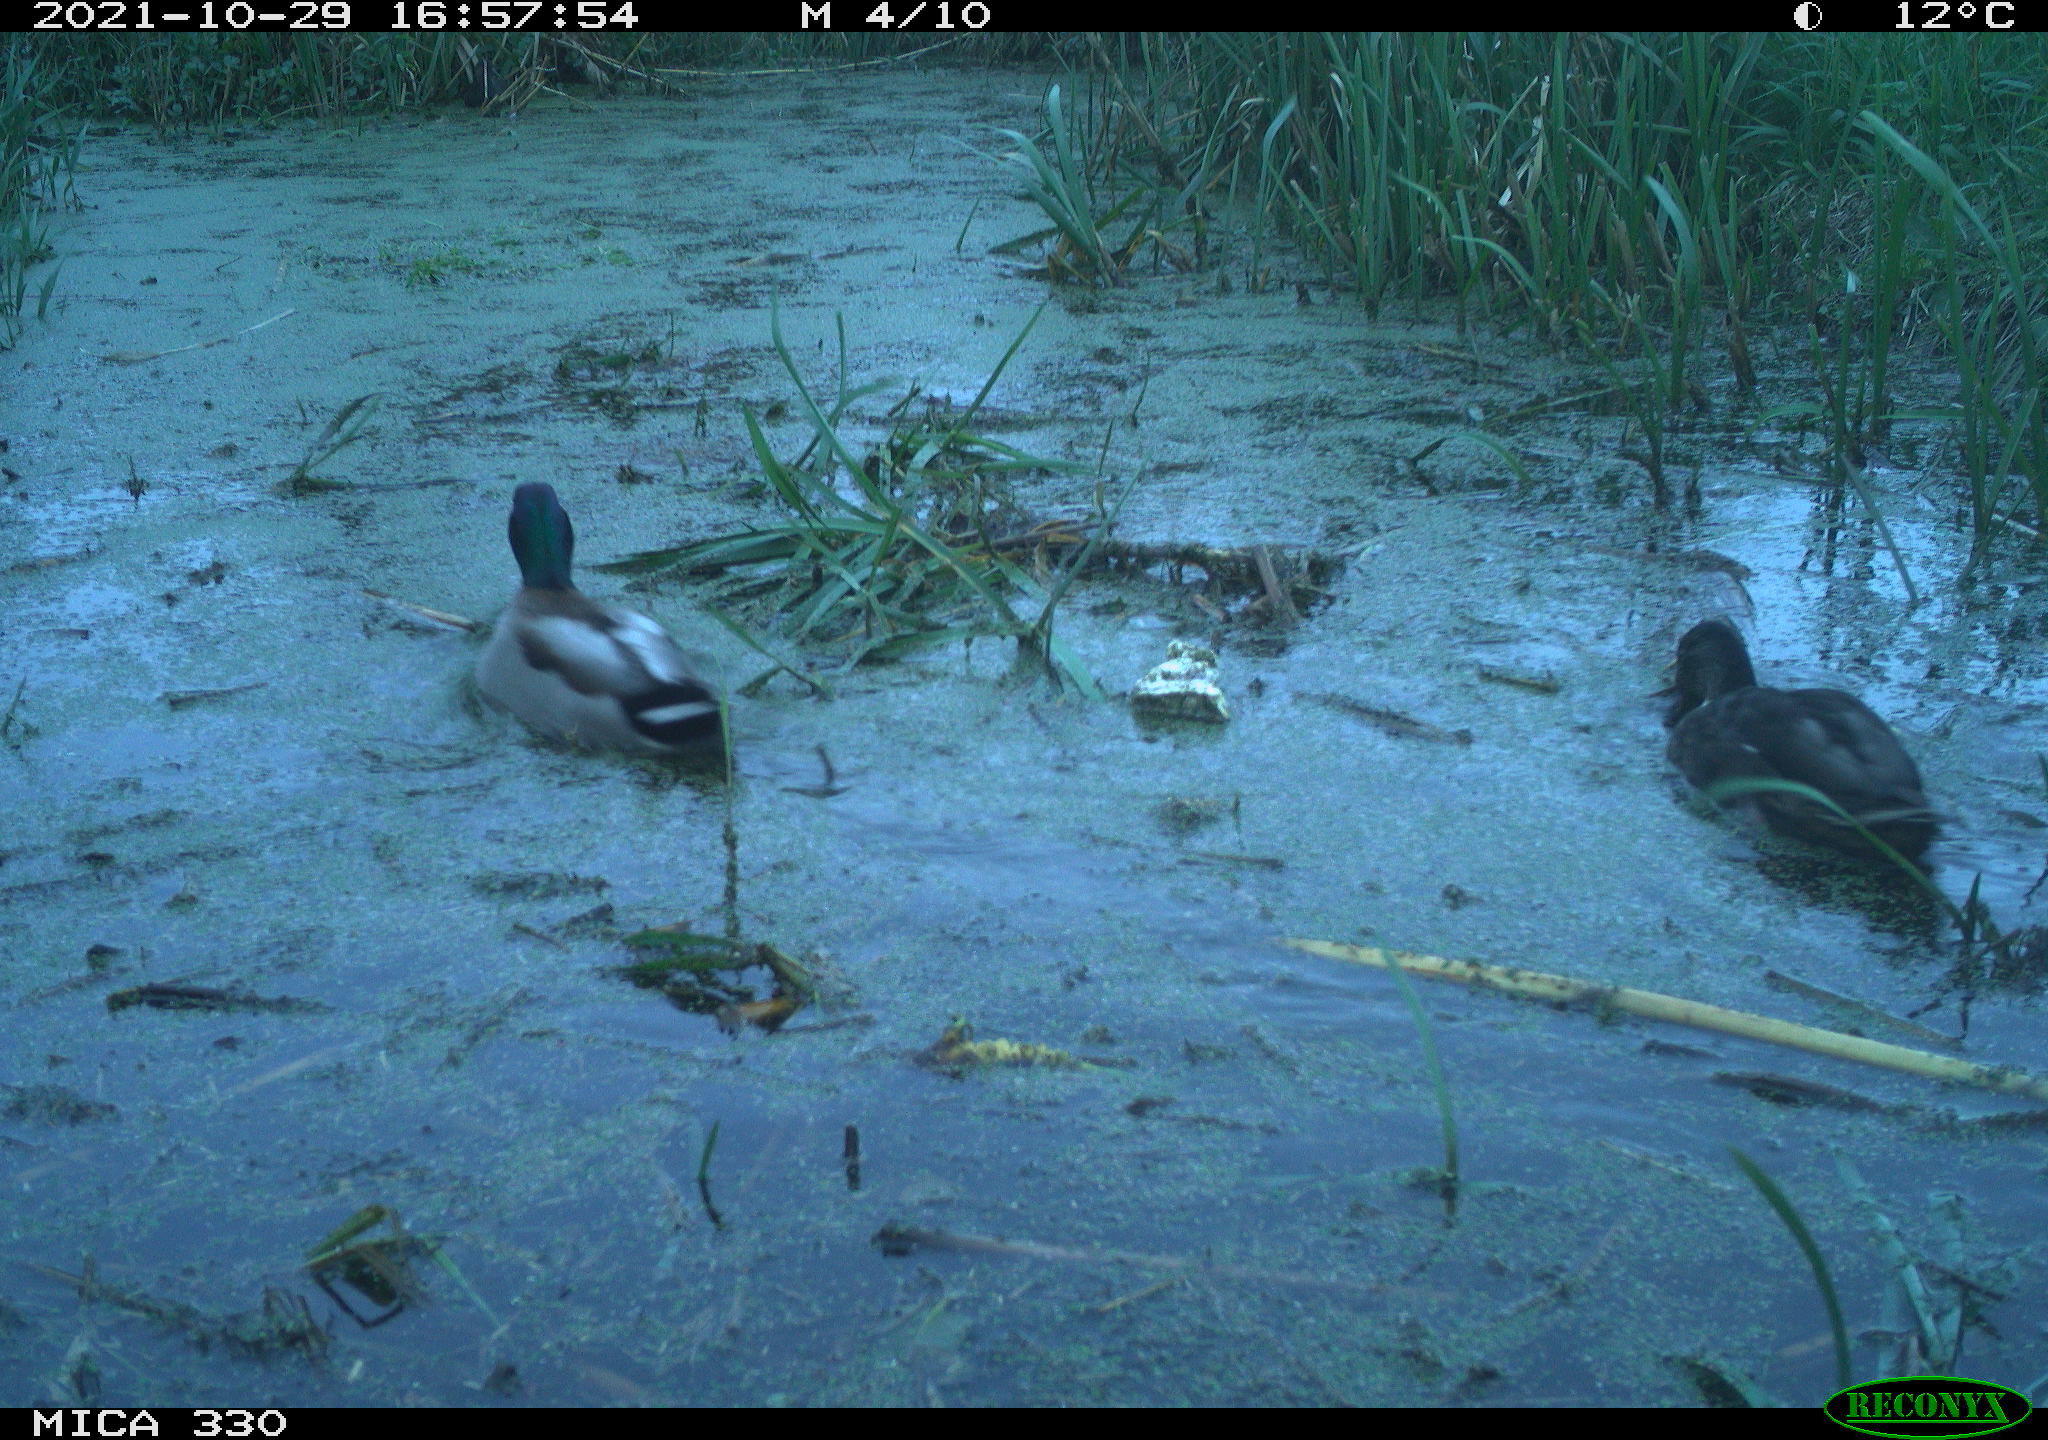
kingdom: Animalia
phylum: Chordata
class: Aves
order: Anseriformes
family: Anatidae
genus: Anas
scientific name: Anas platyrhynchos
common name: Mallard
